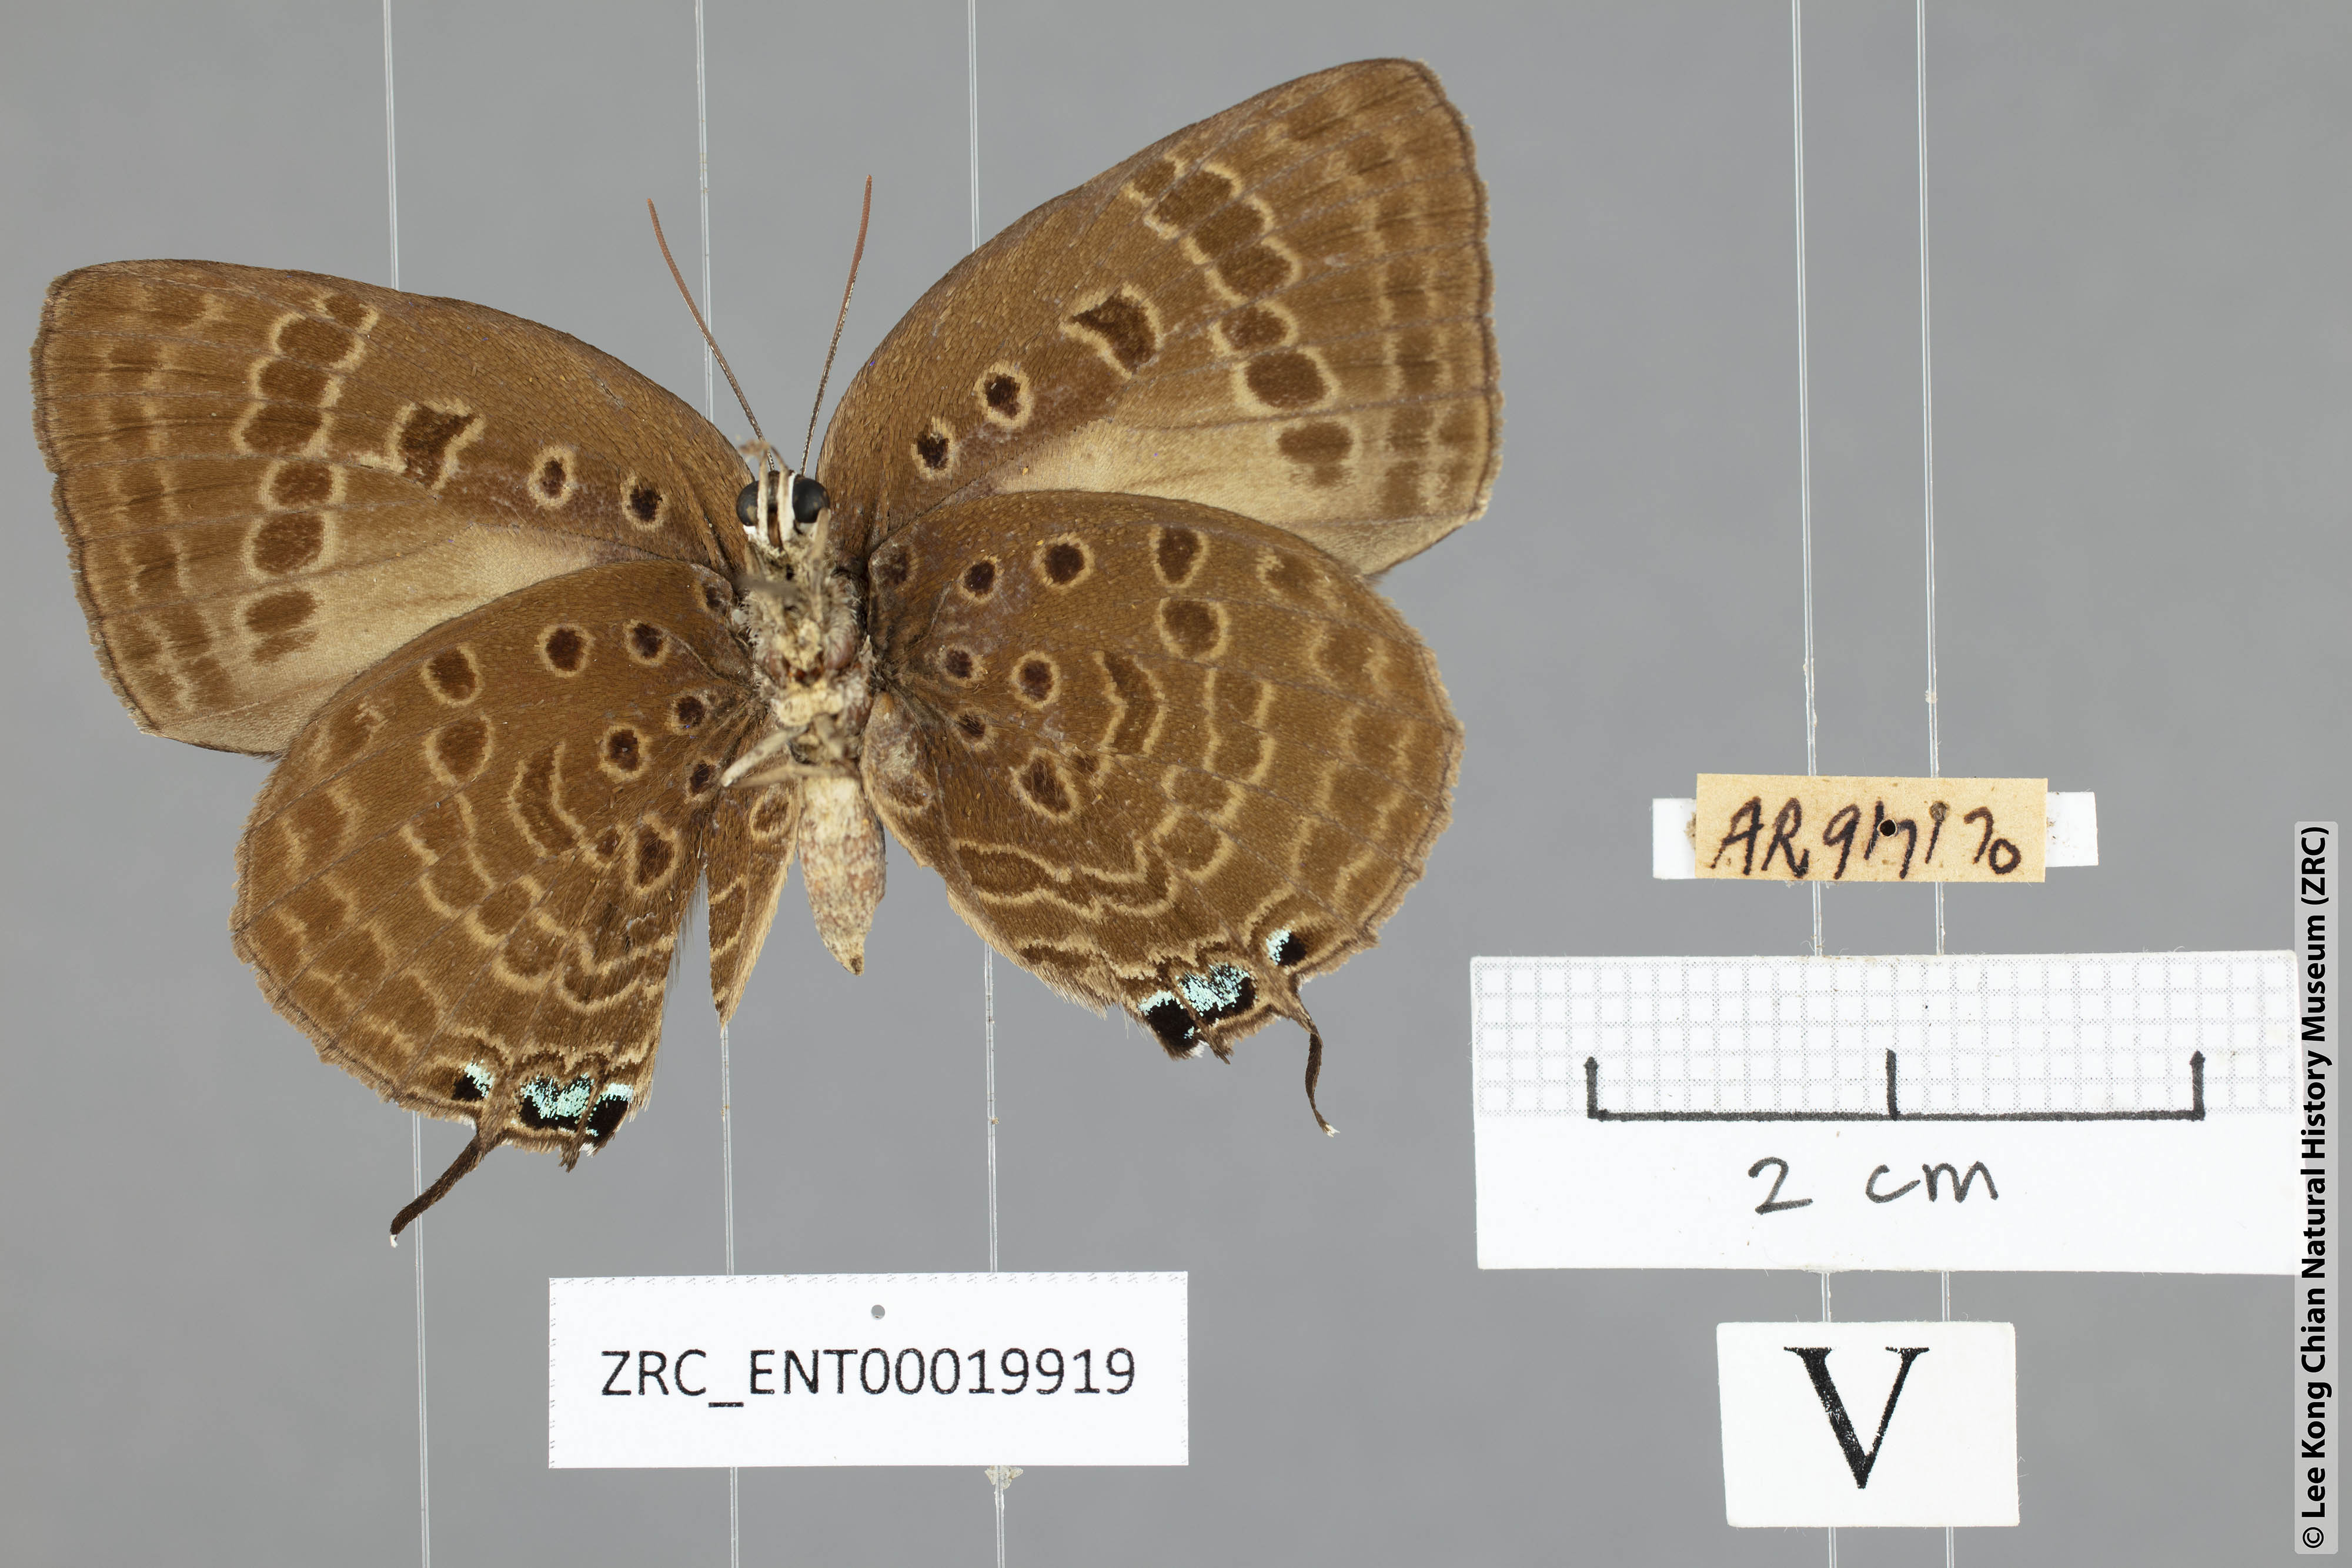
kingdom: Animalia
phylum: Arthropoda
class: Insecta
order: Lepidoptera
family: Lycaenidae
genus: Arhopala
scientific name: Arhopala vihara
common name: Large spotted oakblue
